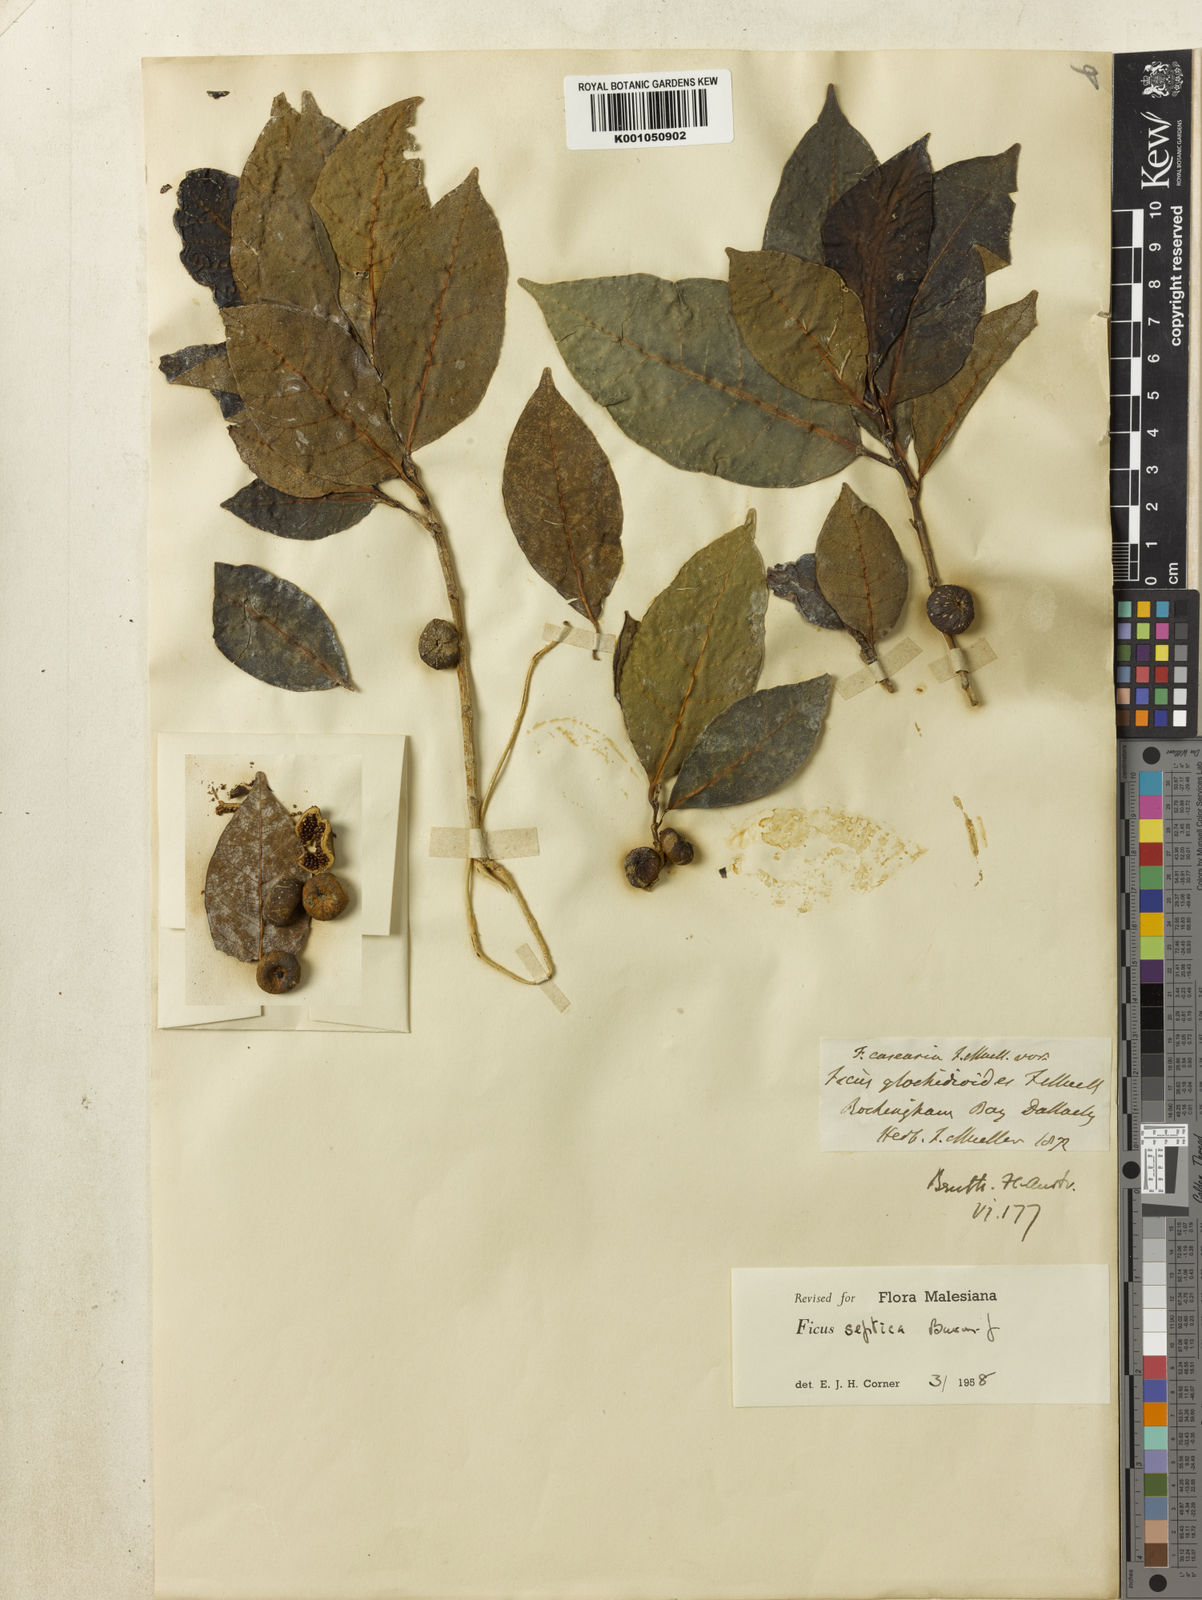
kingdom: Plantae
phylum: Tracheophyta
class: Magnoliopsida
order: Rosales
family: Moraceae
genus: Ficus
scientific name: Ficus septica
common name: Septic fig
